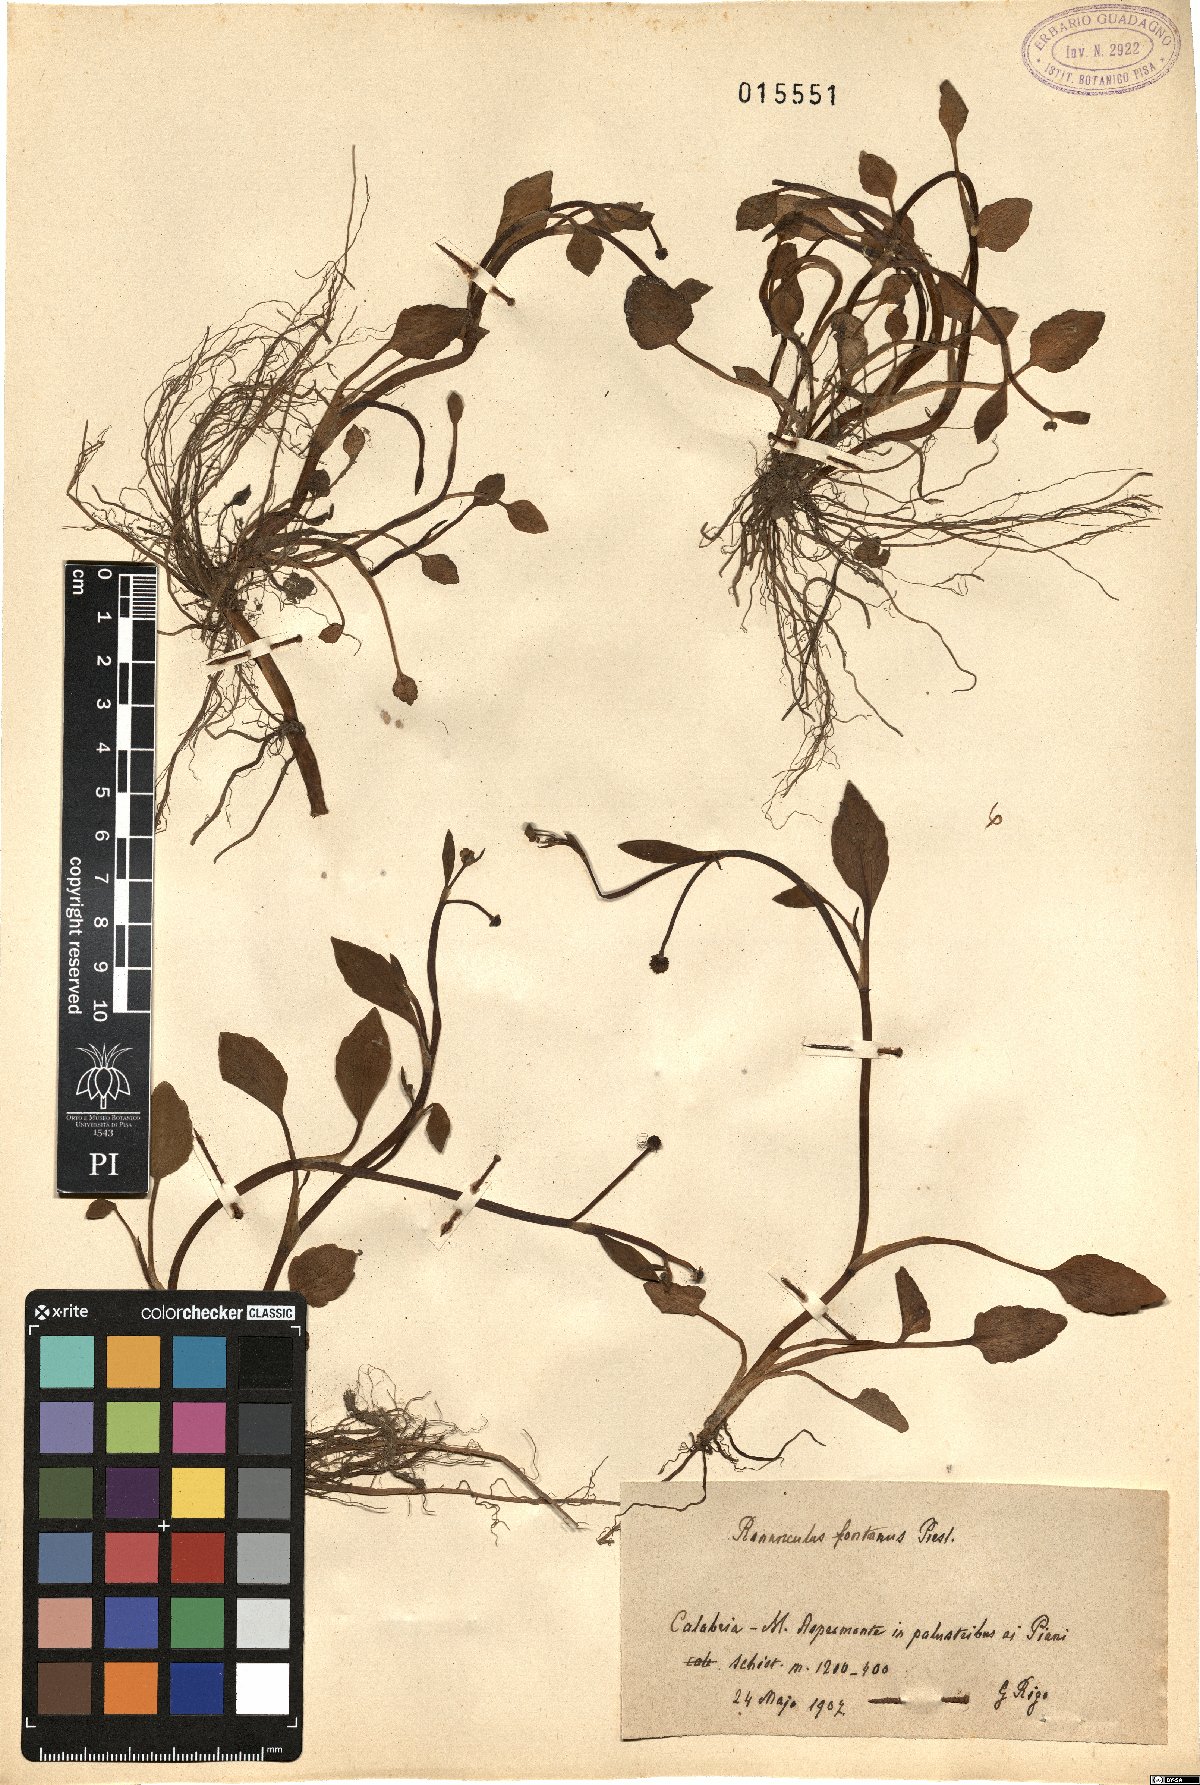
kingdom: Plantae
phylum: Tracheophyta
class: Magnoliopsida
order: Ranunculales
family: Ranunculaceae
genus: Ranunculus
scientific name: Ranunculus fontanus
